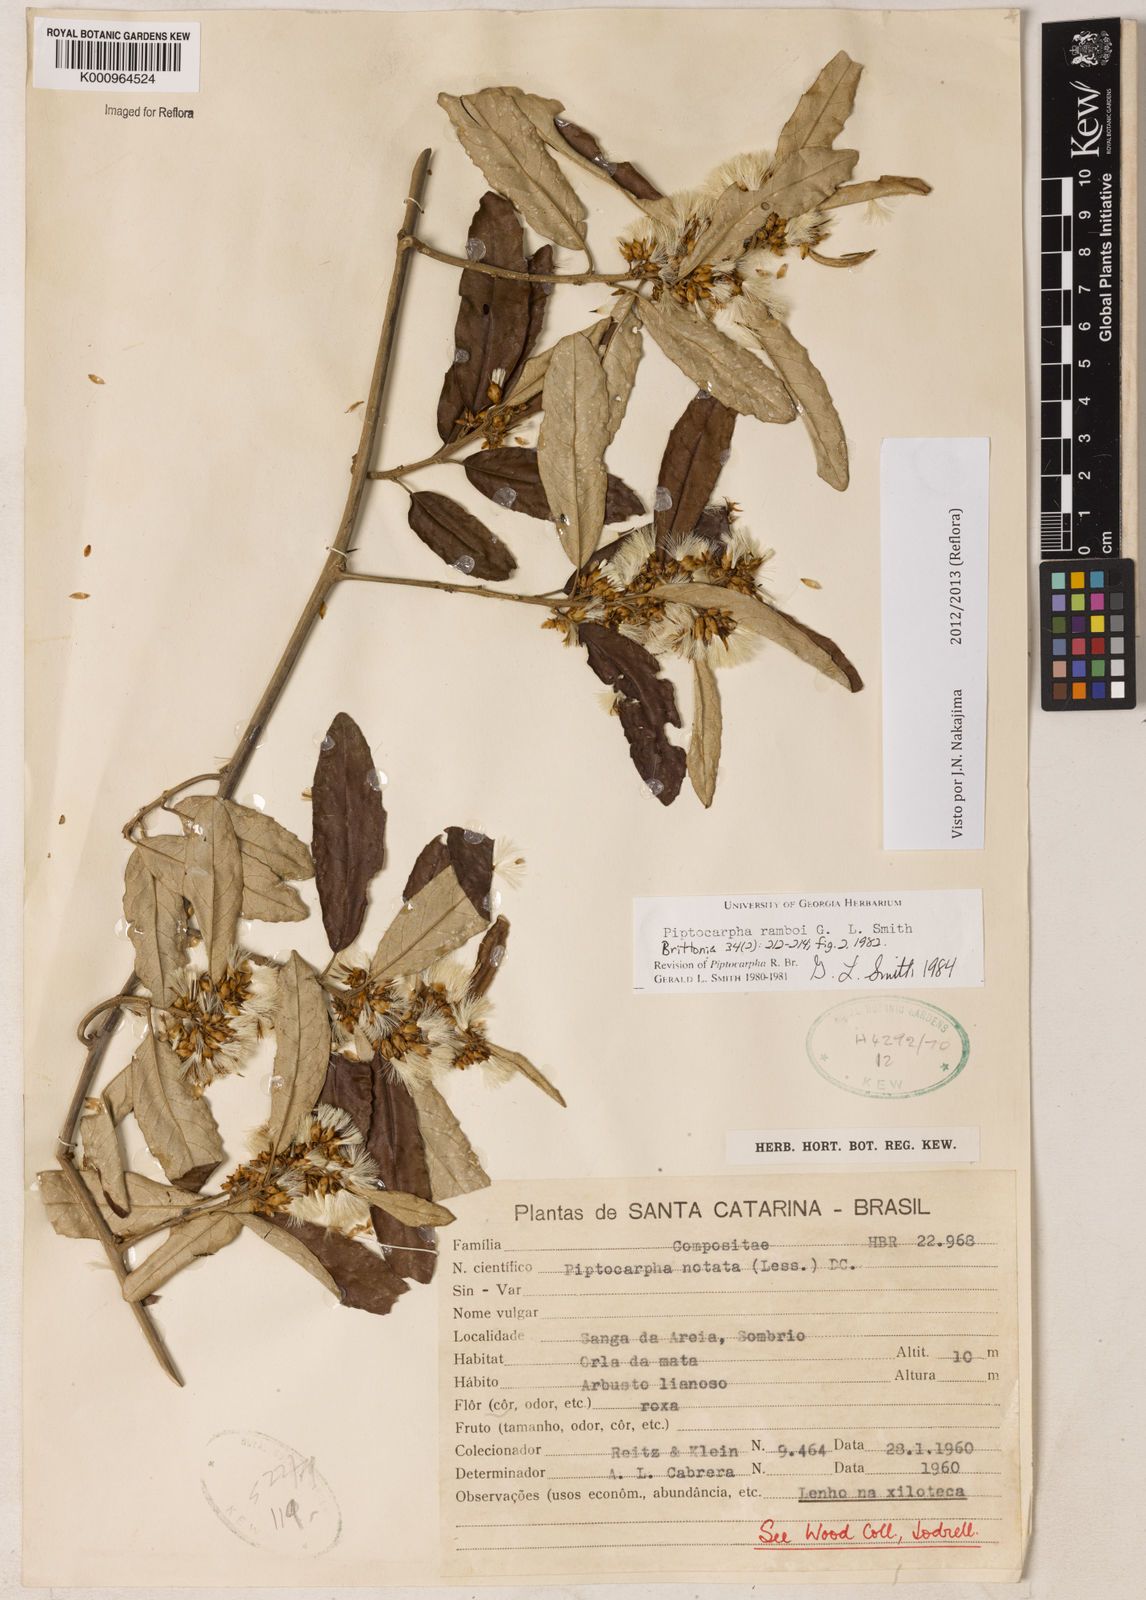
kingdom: Plantae
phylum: Tracheophyta
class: Magnoliopsida
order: Asterales
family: Asteraceae
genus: Piptocarpha
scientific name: Piptocarpha ramboi
